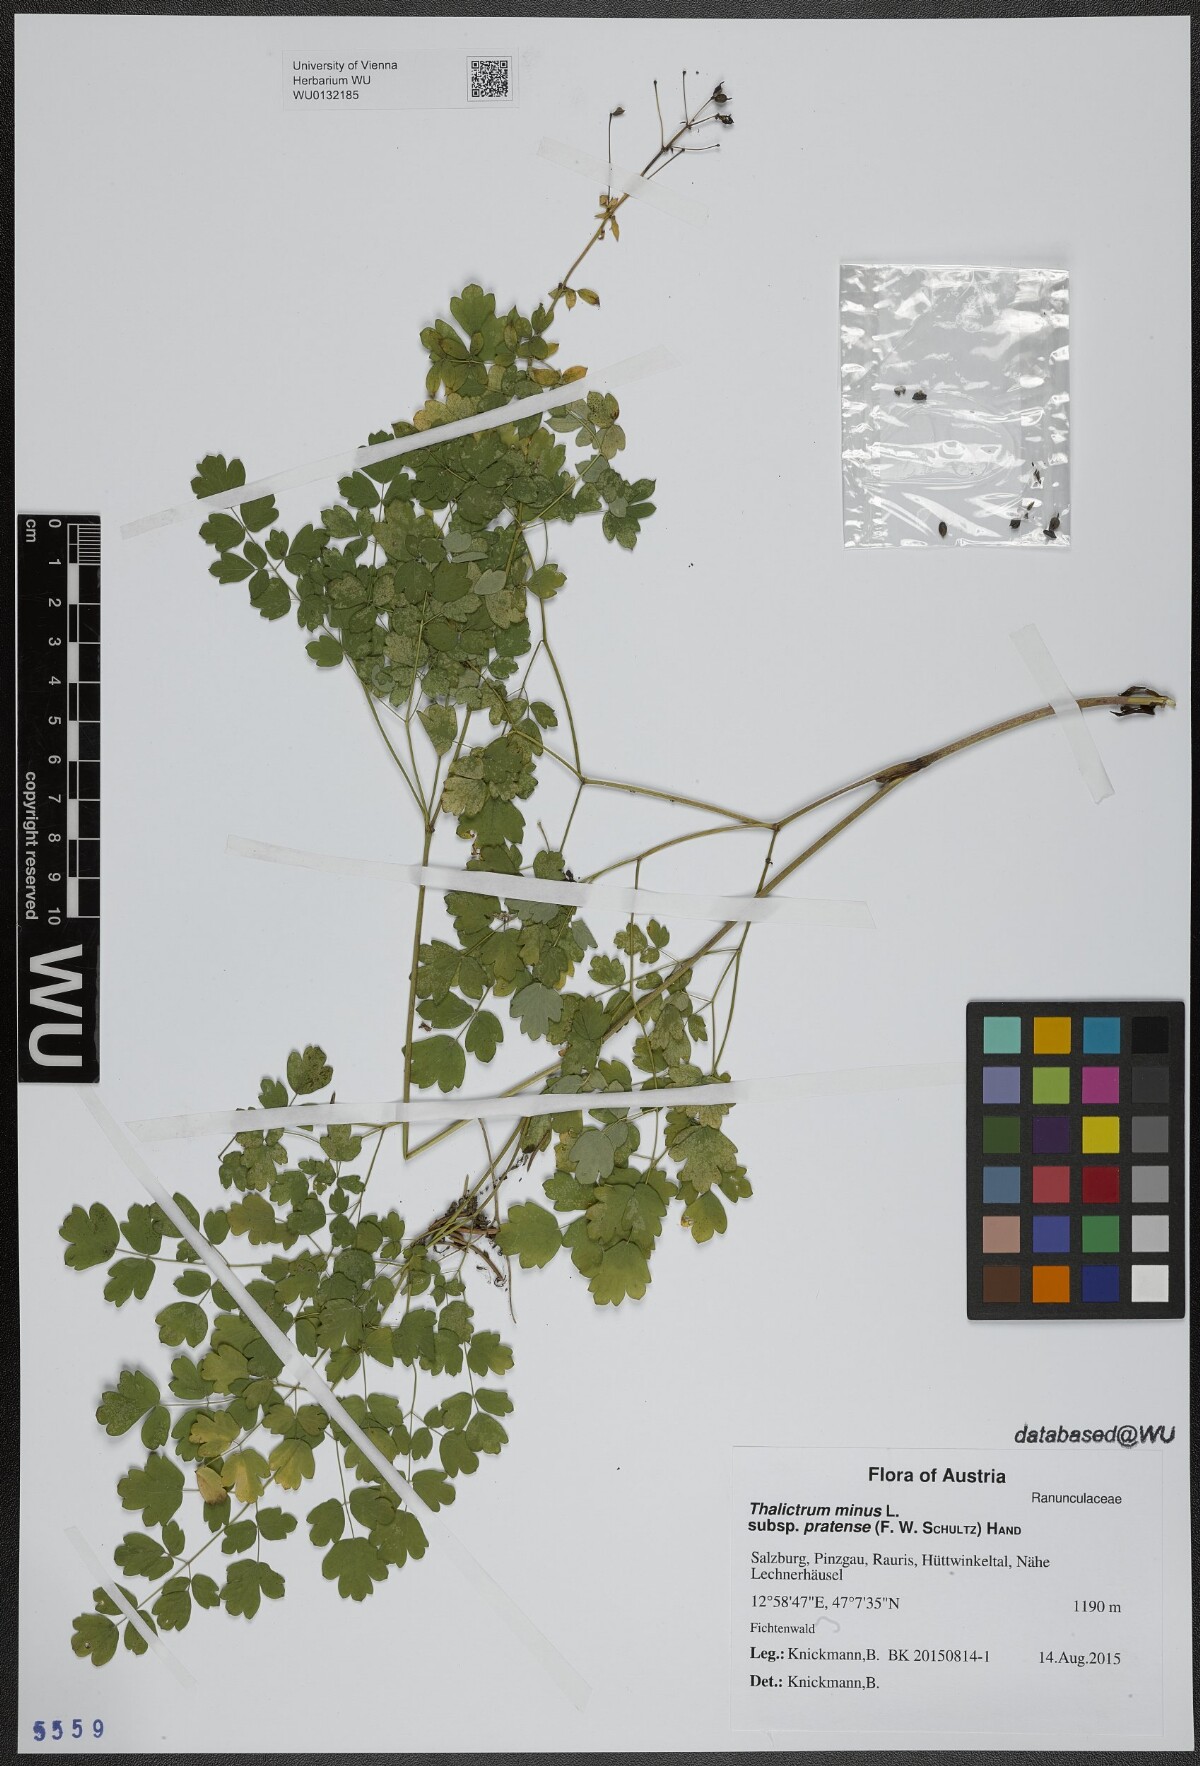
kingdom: Plantae
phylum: Tracheophyta
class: Magnoliopsida
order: Ranunculales
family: Ranunculaceae
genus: Thalictrum
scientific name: Thalictrum minus
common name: Lesser meadow-rue
